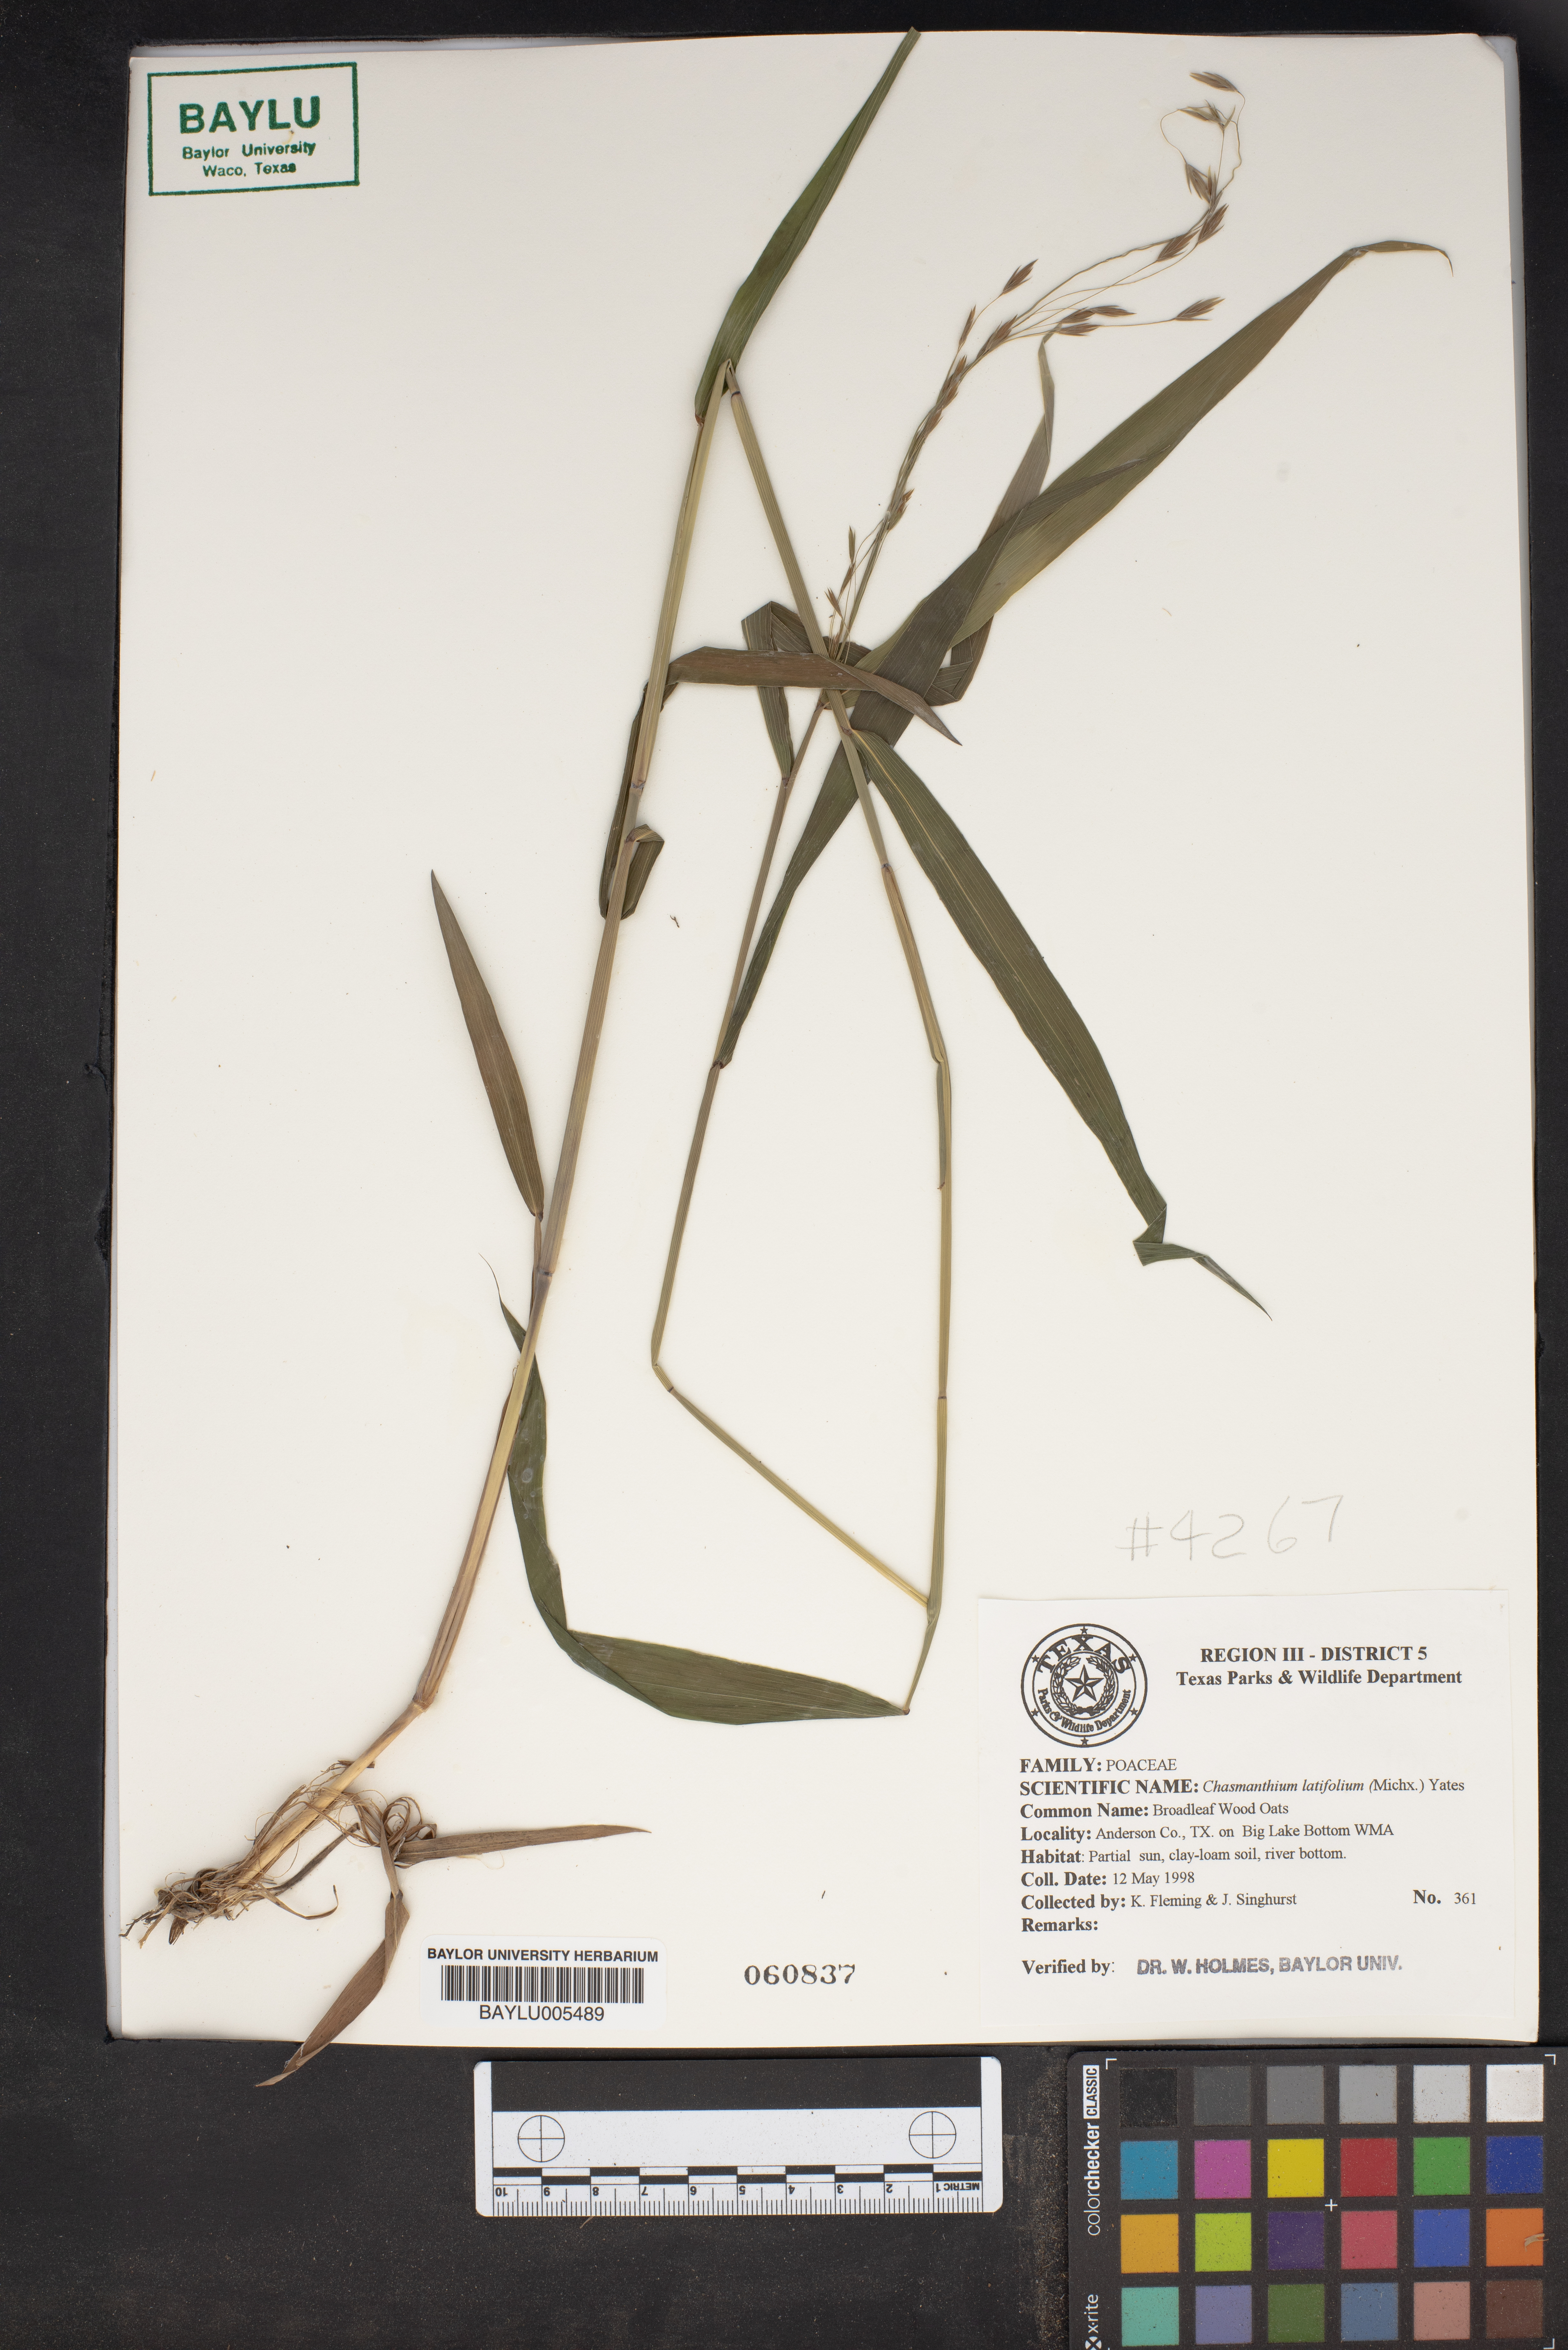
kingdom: Plantae
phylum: Tracheophyta
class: Liliopsida
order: Poales
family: Poaceae
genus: Chasmanthium
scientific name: Chasmanthium latifolium
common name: Broad-leaved chasmanthium
